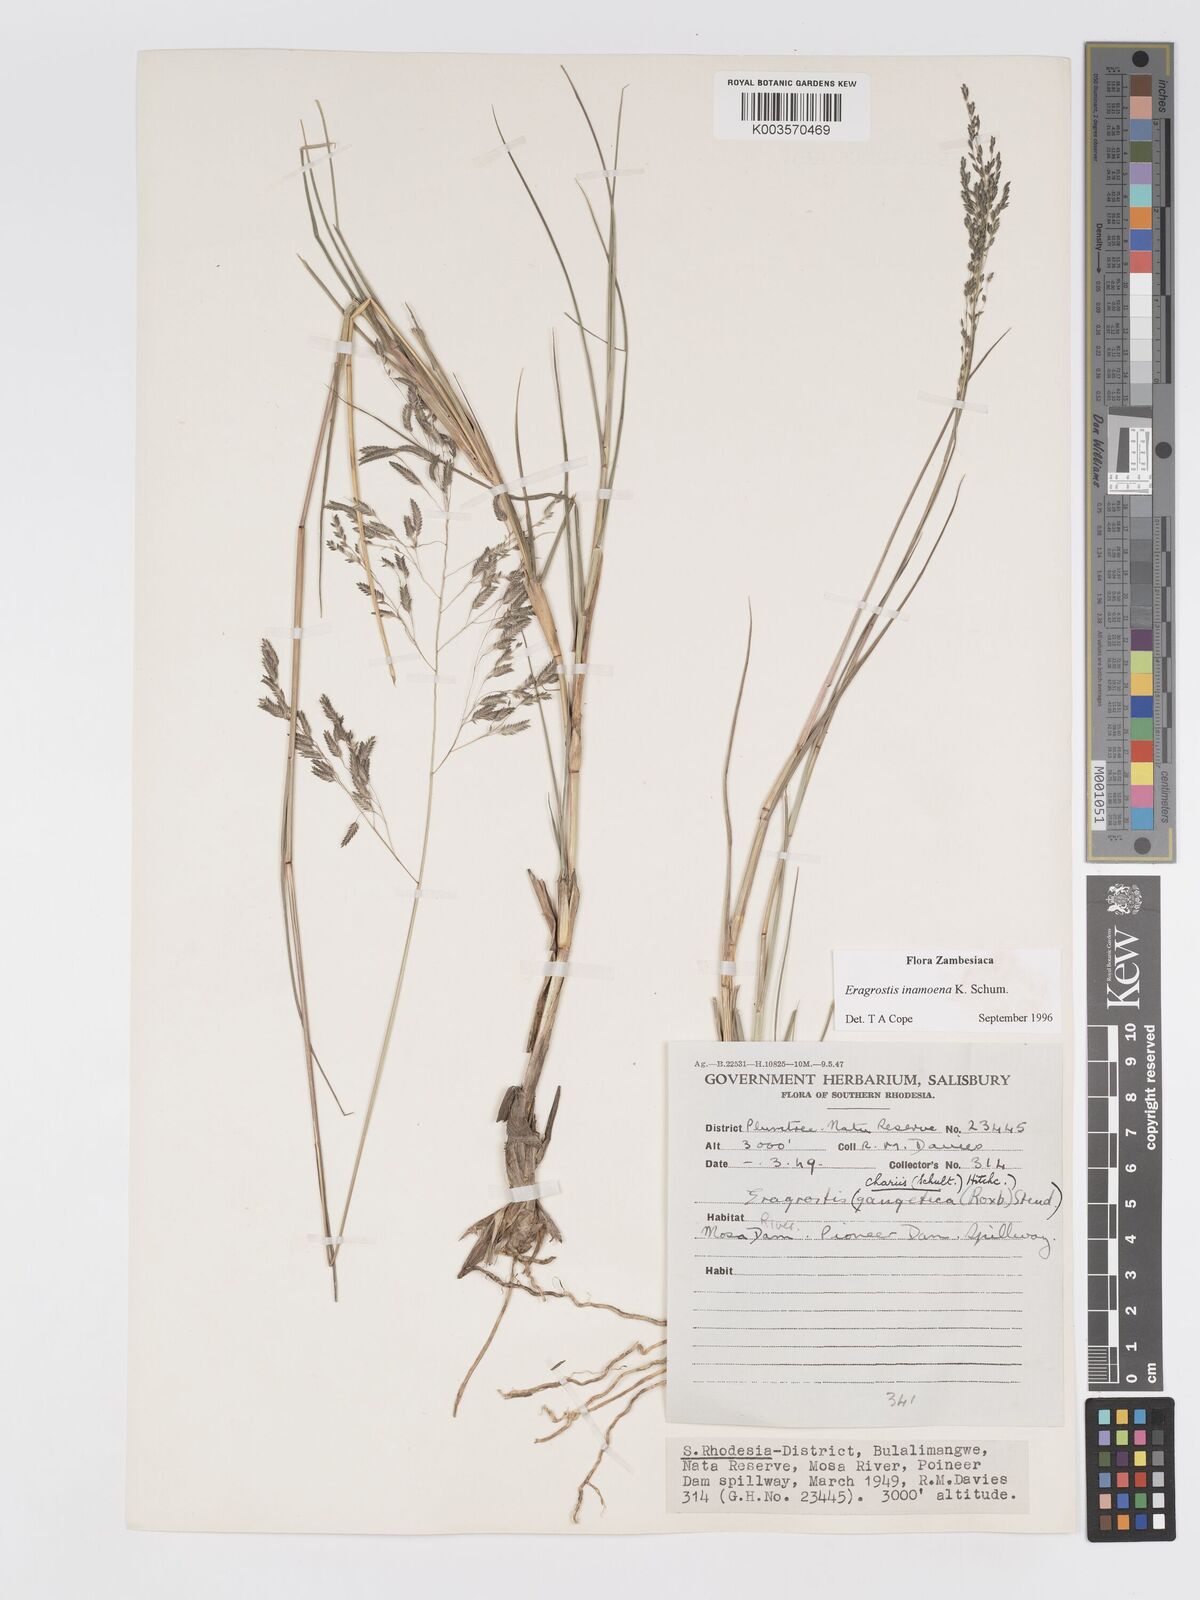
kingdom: Plantae
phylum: Tracheophyta
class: Liliopsida
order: Poales
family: Poaceae
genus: Eragrostis
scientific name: Eragrostis inamoena
